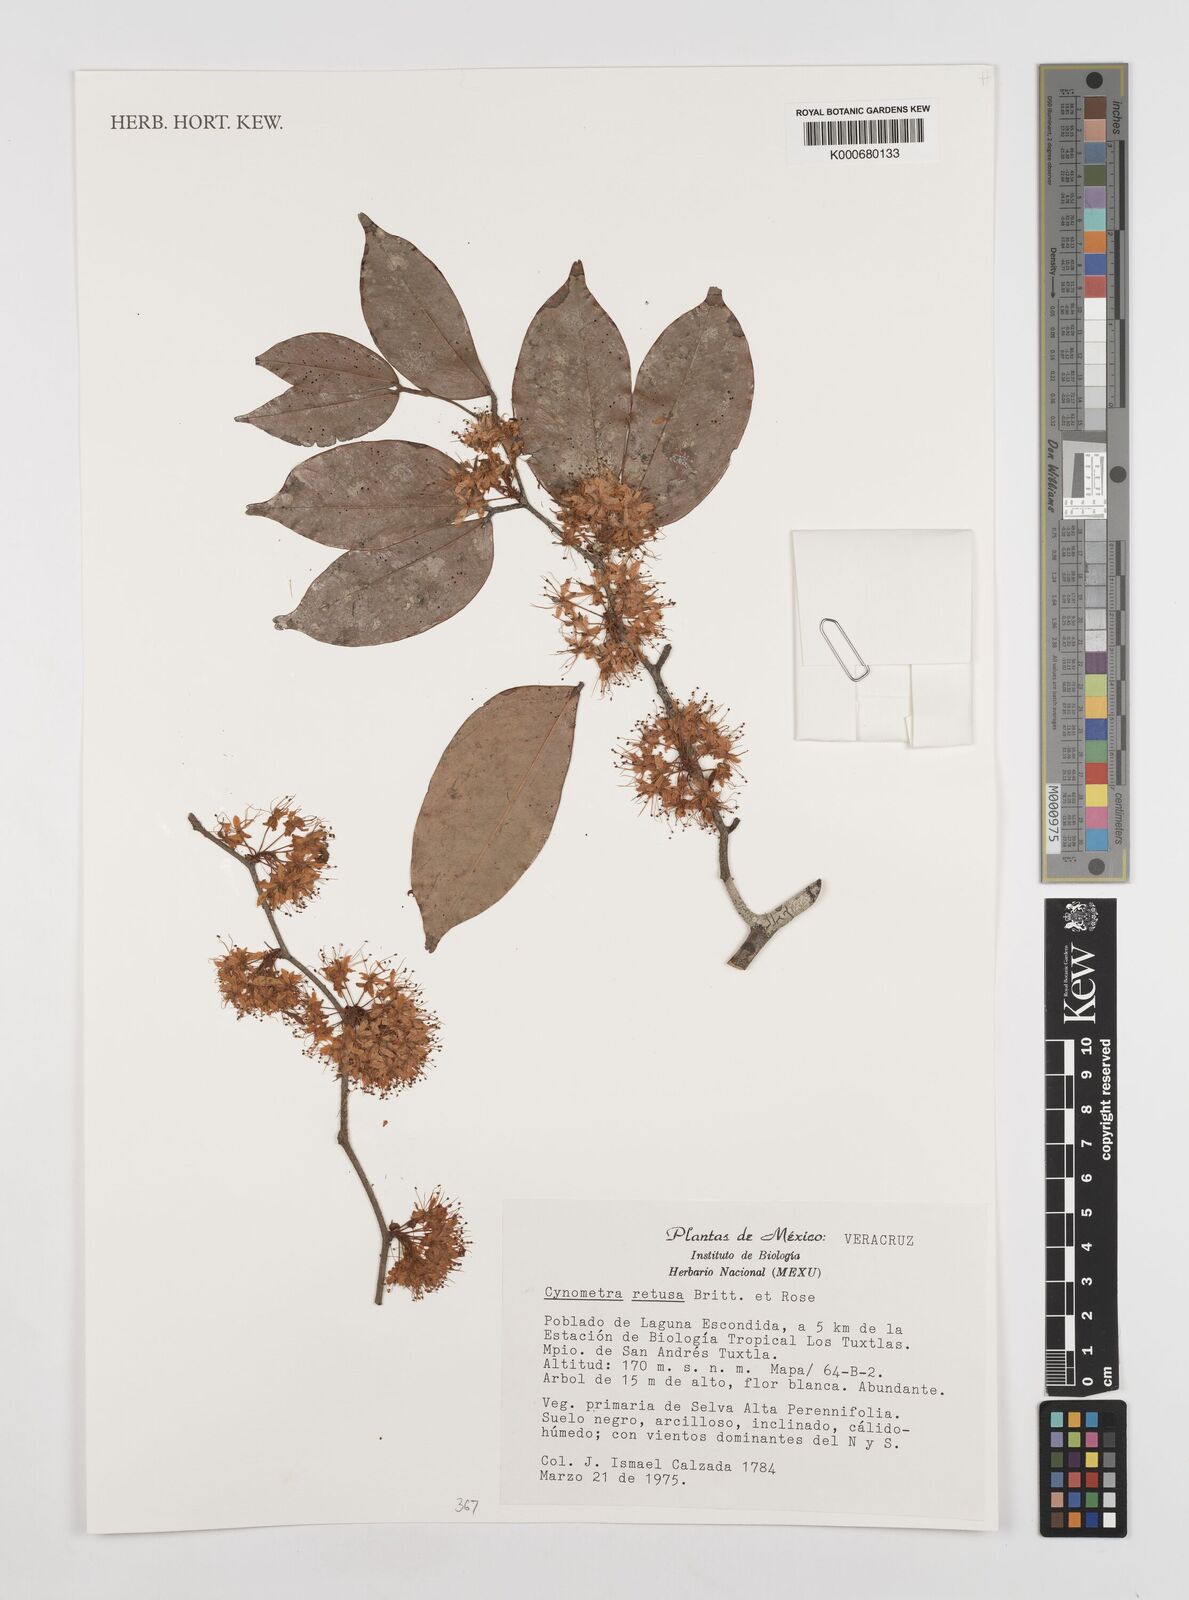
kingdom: Plantae
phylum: Tracheophyta
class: Magnoliopsida
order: Fabales
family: Fabaceae
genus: Cynometra
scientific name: Cynometra retusa
